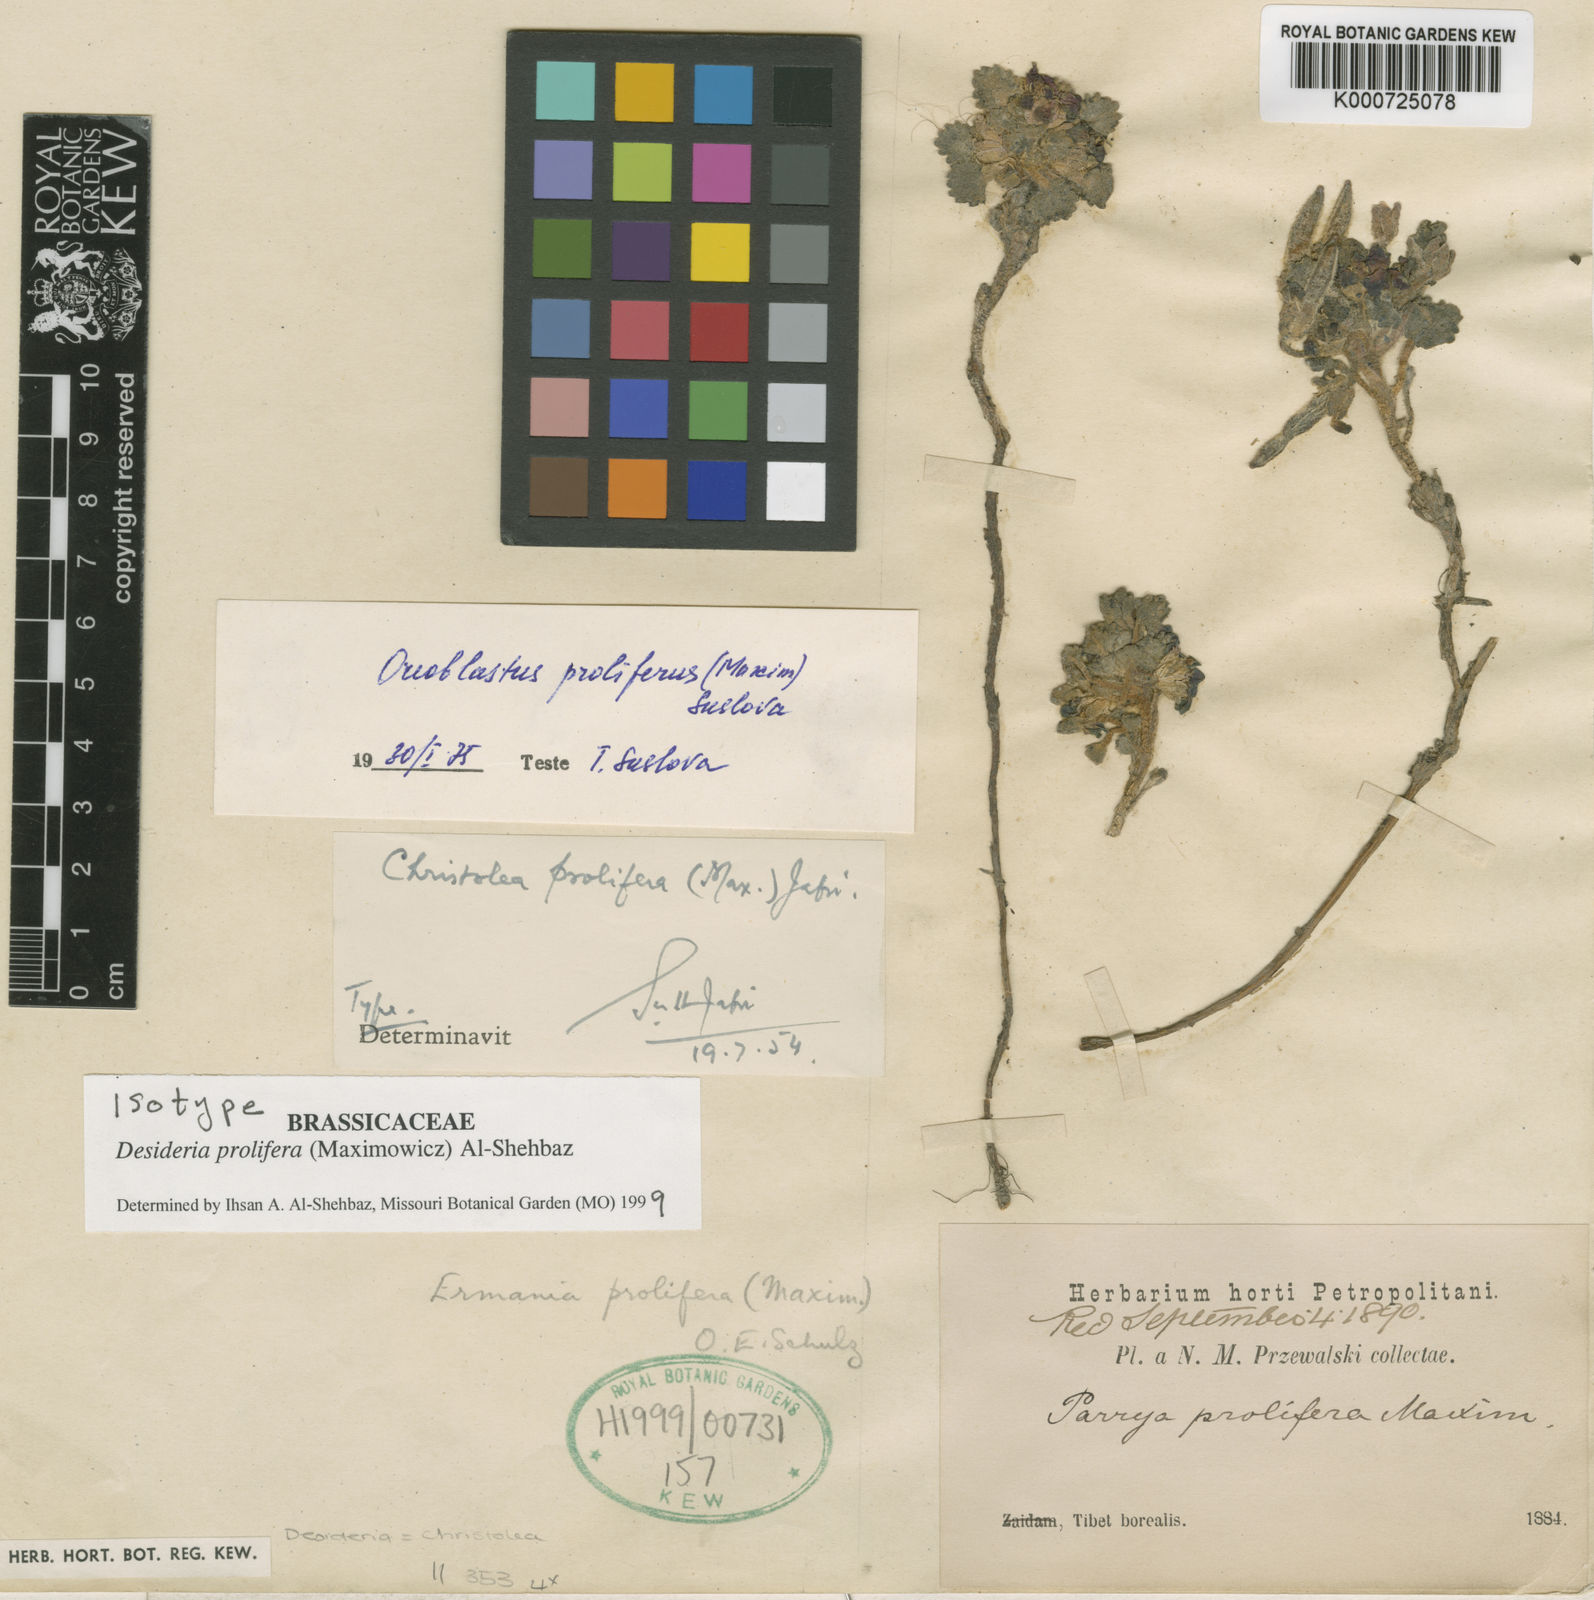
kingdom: Plantae
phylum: Tracheophyta
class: Magnoliopsida
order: Brassicales
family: Brassicaceae
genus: Solms-laubachia
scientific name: Solms-laubachia prolifera
